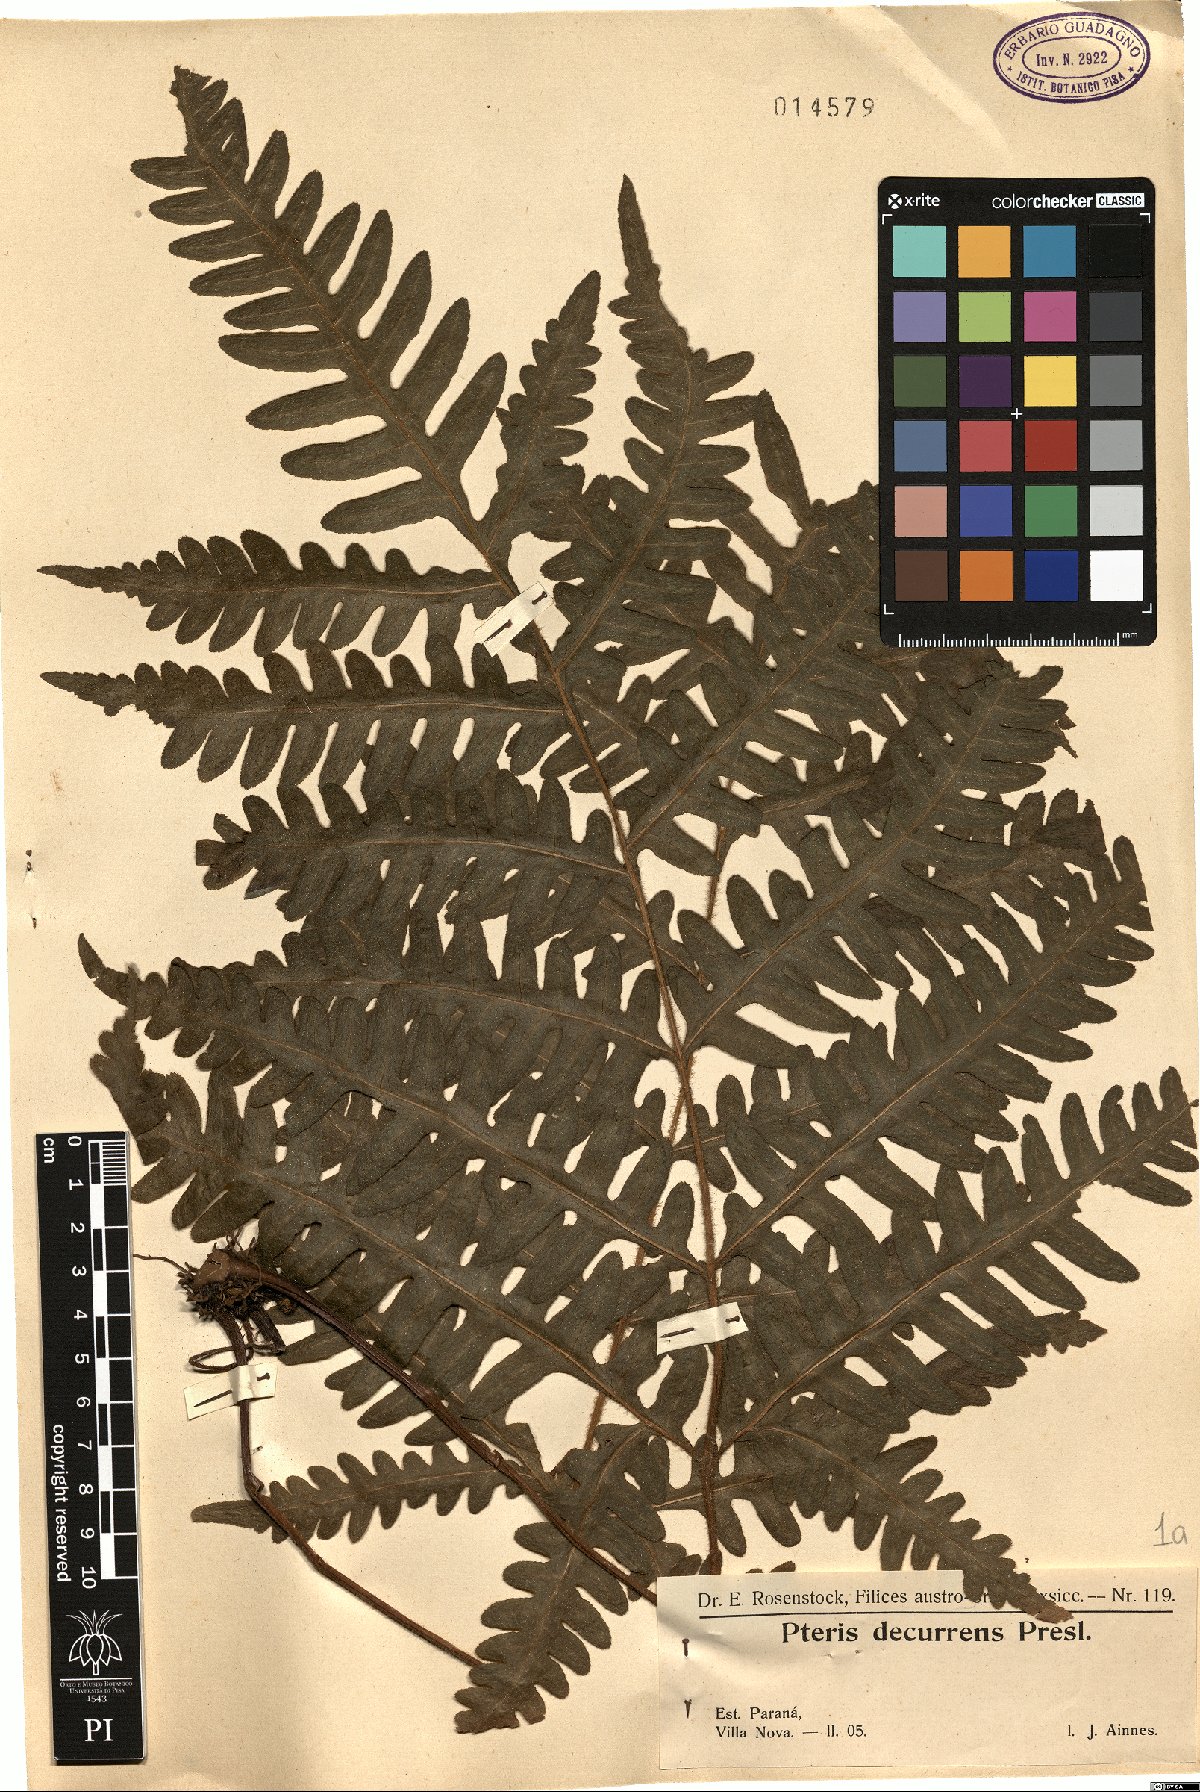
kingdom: Plantae
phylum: Tracheophyta
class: Polypodiopsida
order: Polypodiales
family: Pteridaceae
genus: Pteris
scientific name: Pteris decurrens
